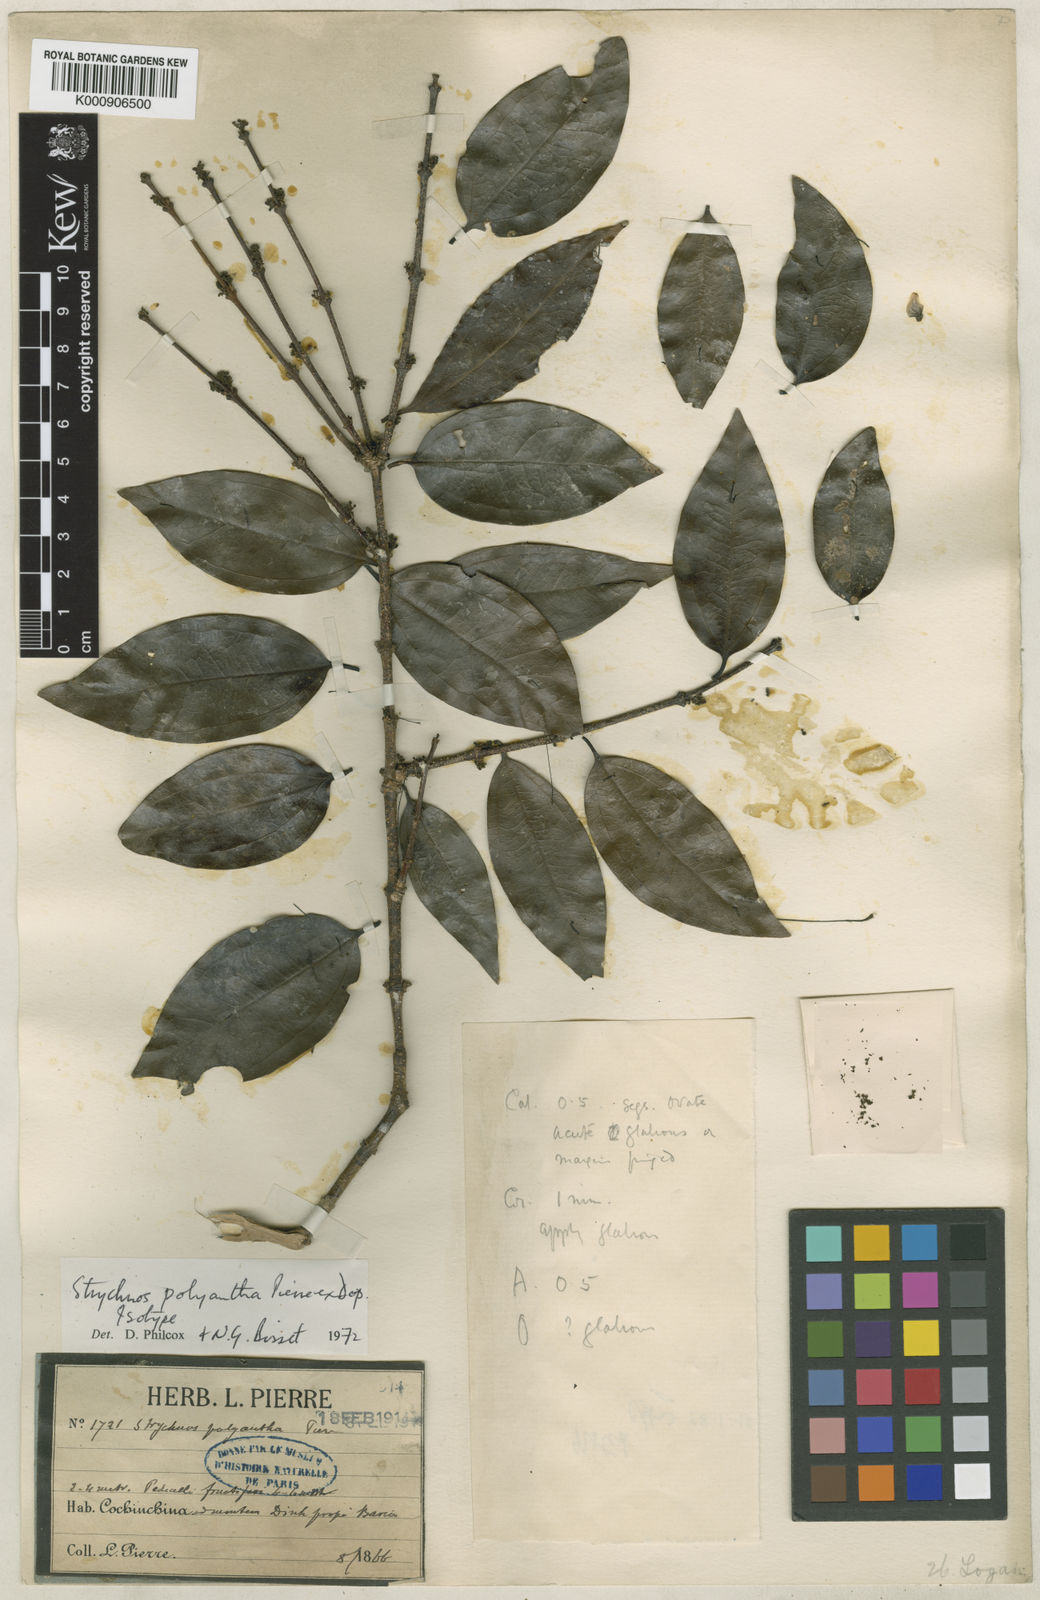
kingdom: Plantae
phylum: Tracheophyta
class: Magnoliopsida
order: Gentianales
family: Loganiaceae
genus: Strychnos
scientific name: Strychnos polyantha
